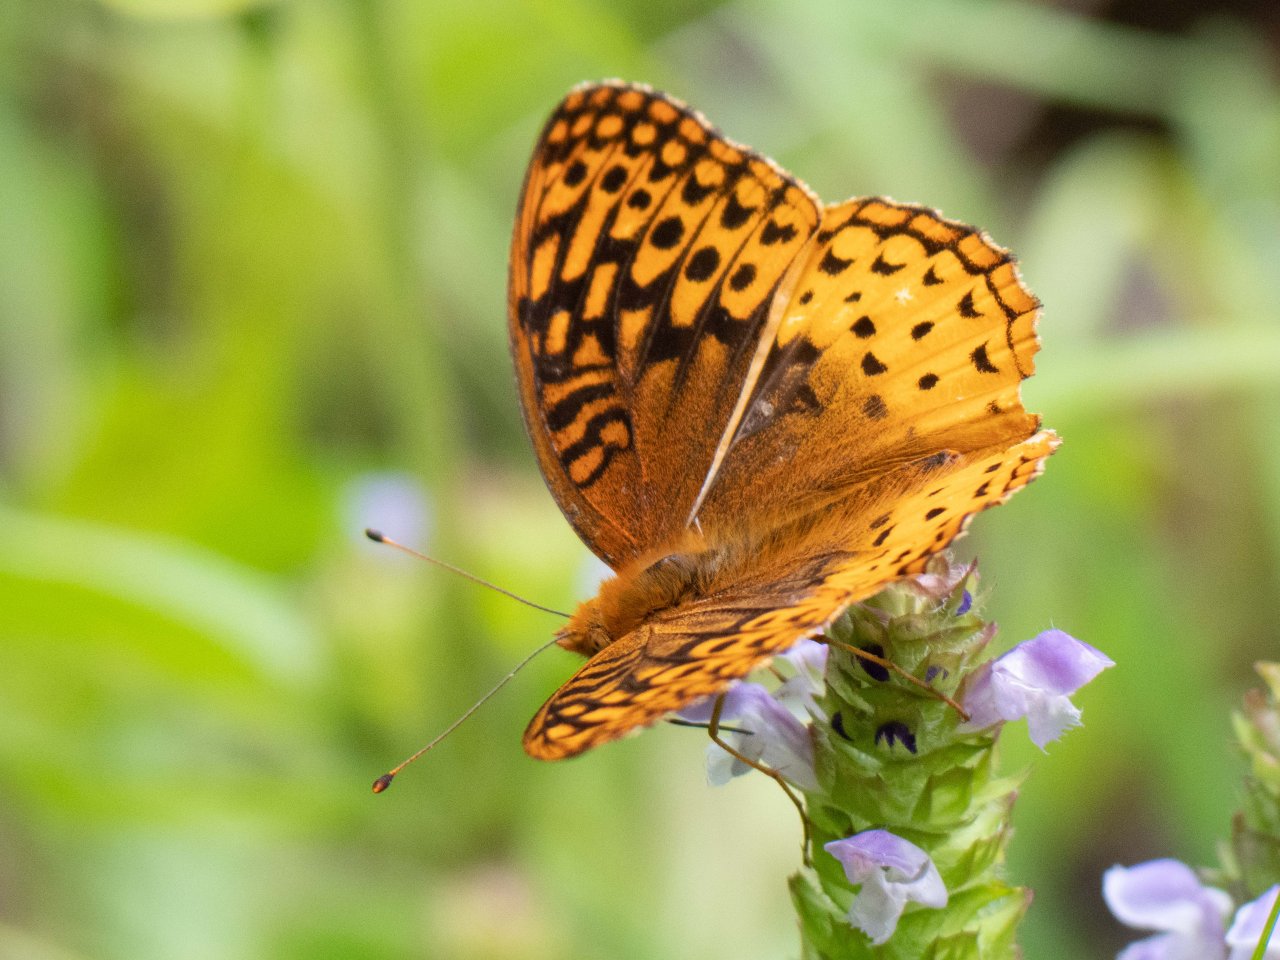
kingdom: Animalia
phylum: Arthropoda
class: Insecta
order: Lepidoptera
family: Nymphalidae
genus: Speyeria
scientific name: Speyeria cybele
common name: Great Spangled Fritillary
